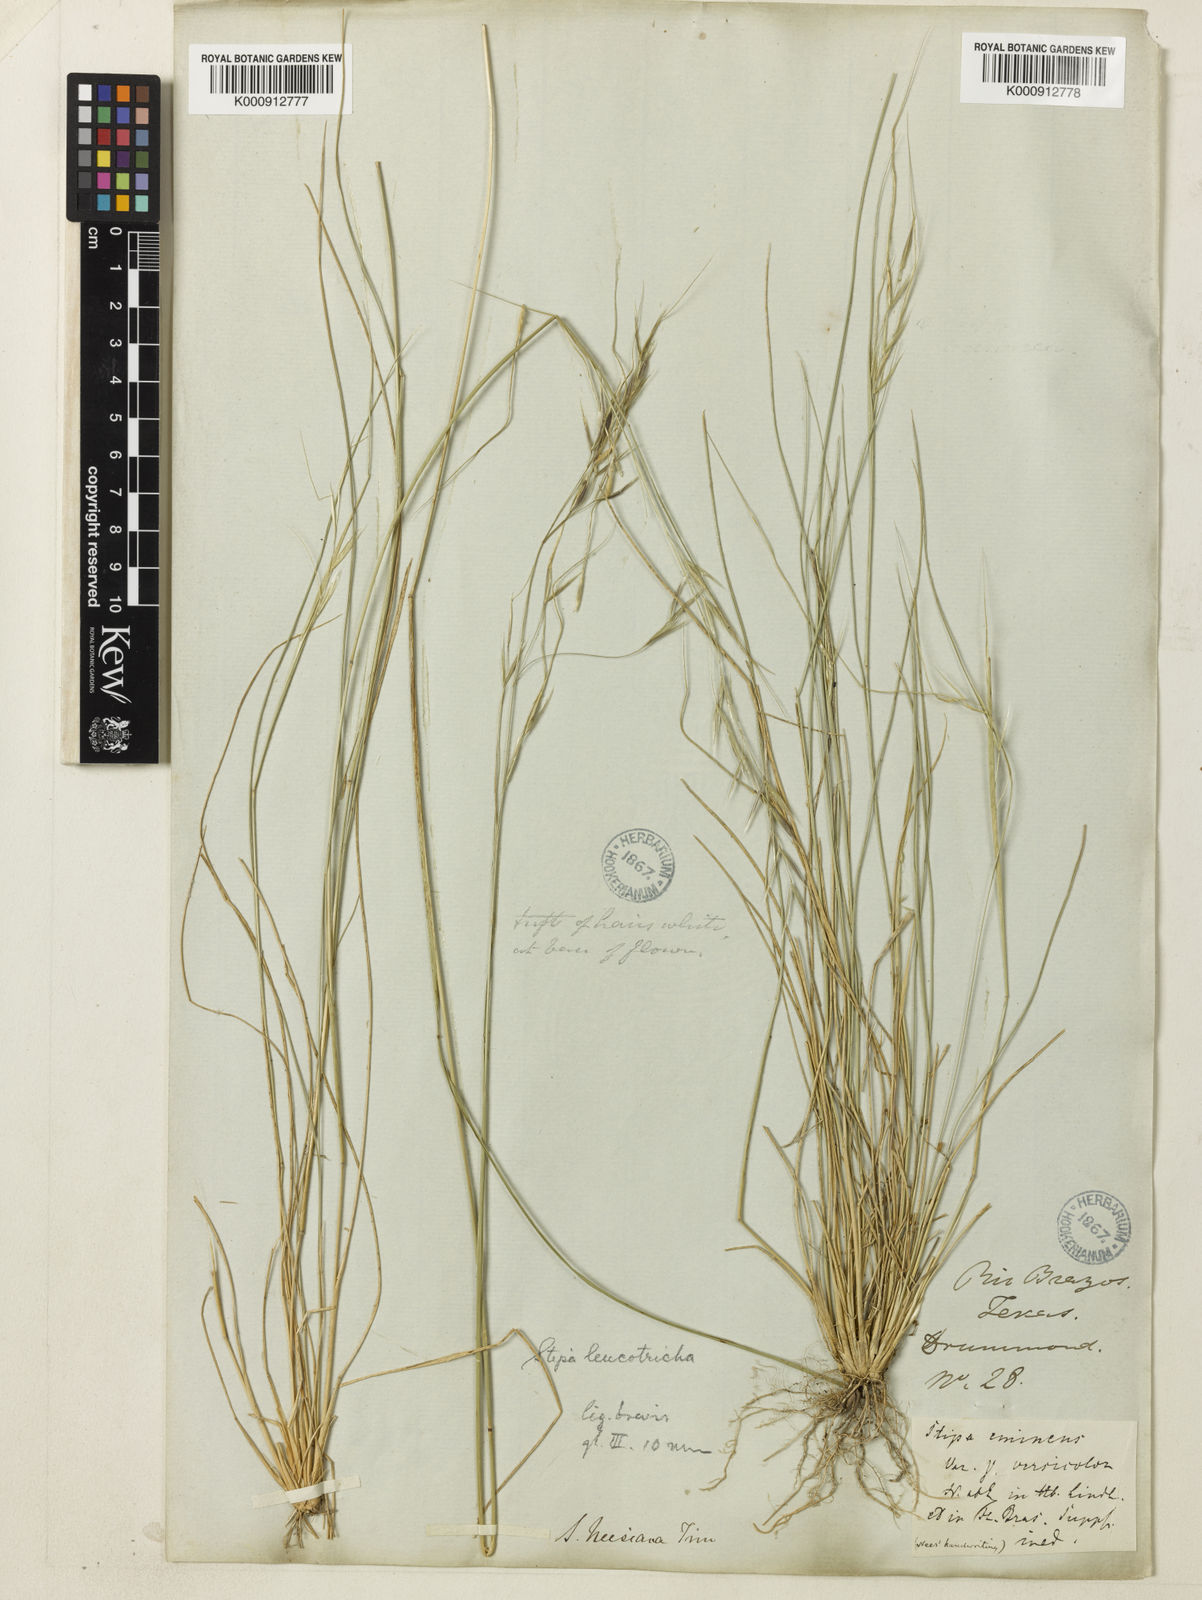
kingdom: Plantae
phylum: Tracheophyta
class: Liliopsida
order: Poales
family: Poaceae
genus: Nassella
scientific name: Nassella leucotricha
